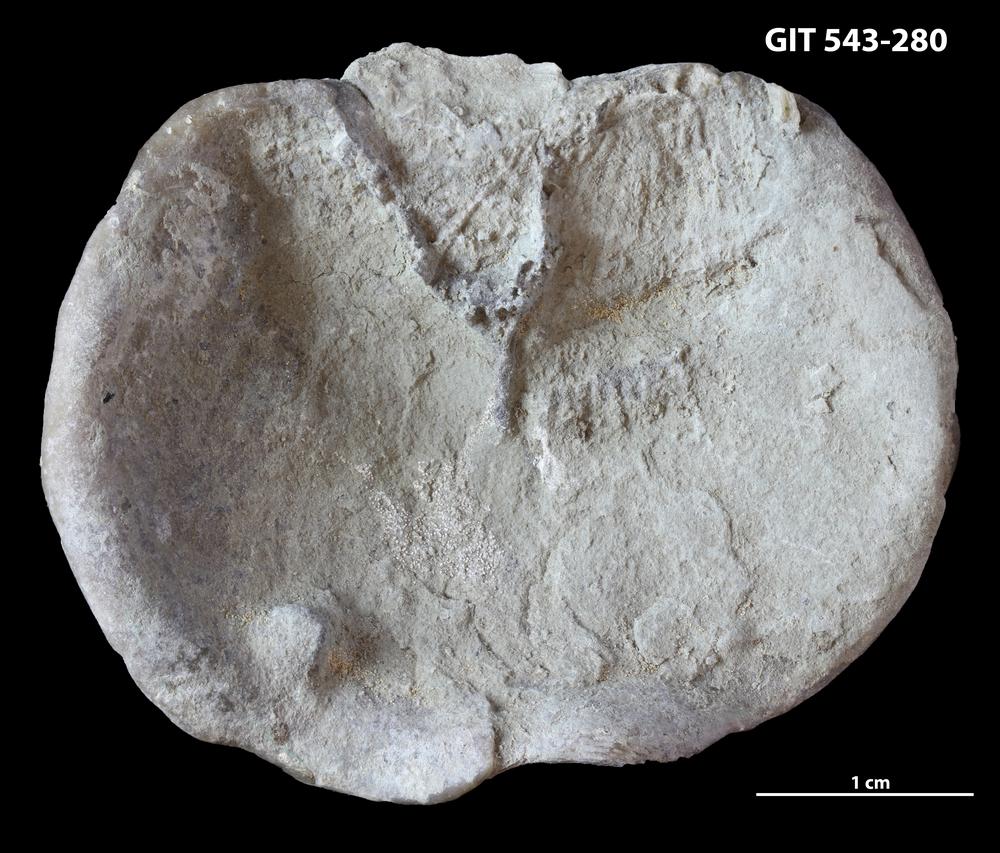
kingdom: Animalia
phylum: Brachiopoda
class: Rhynchonellata
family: Clitambonitidae
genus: Ilmarinia
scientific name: Ilmarinia
